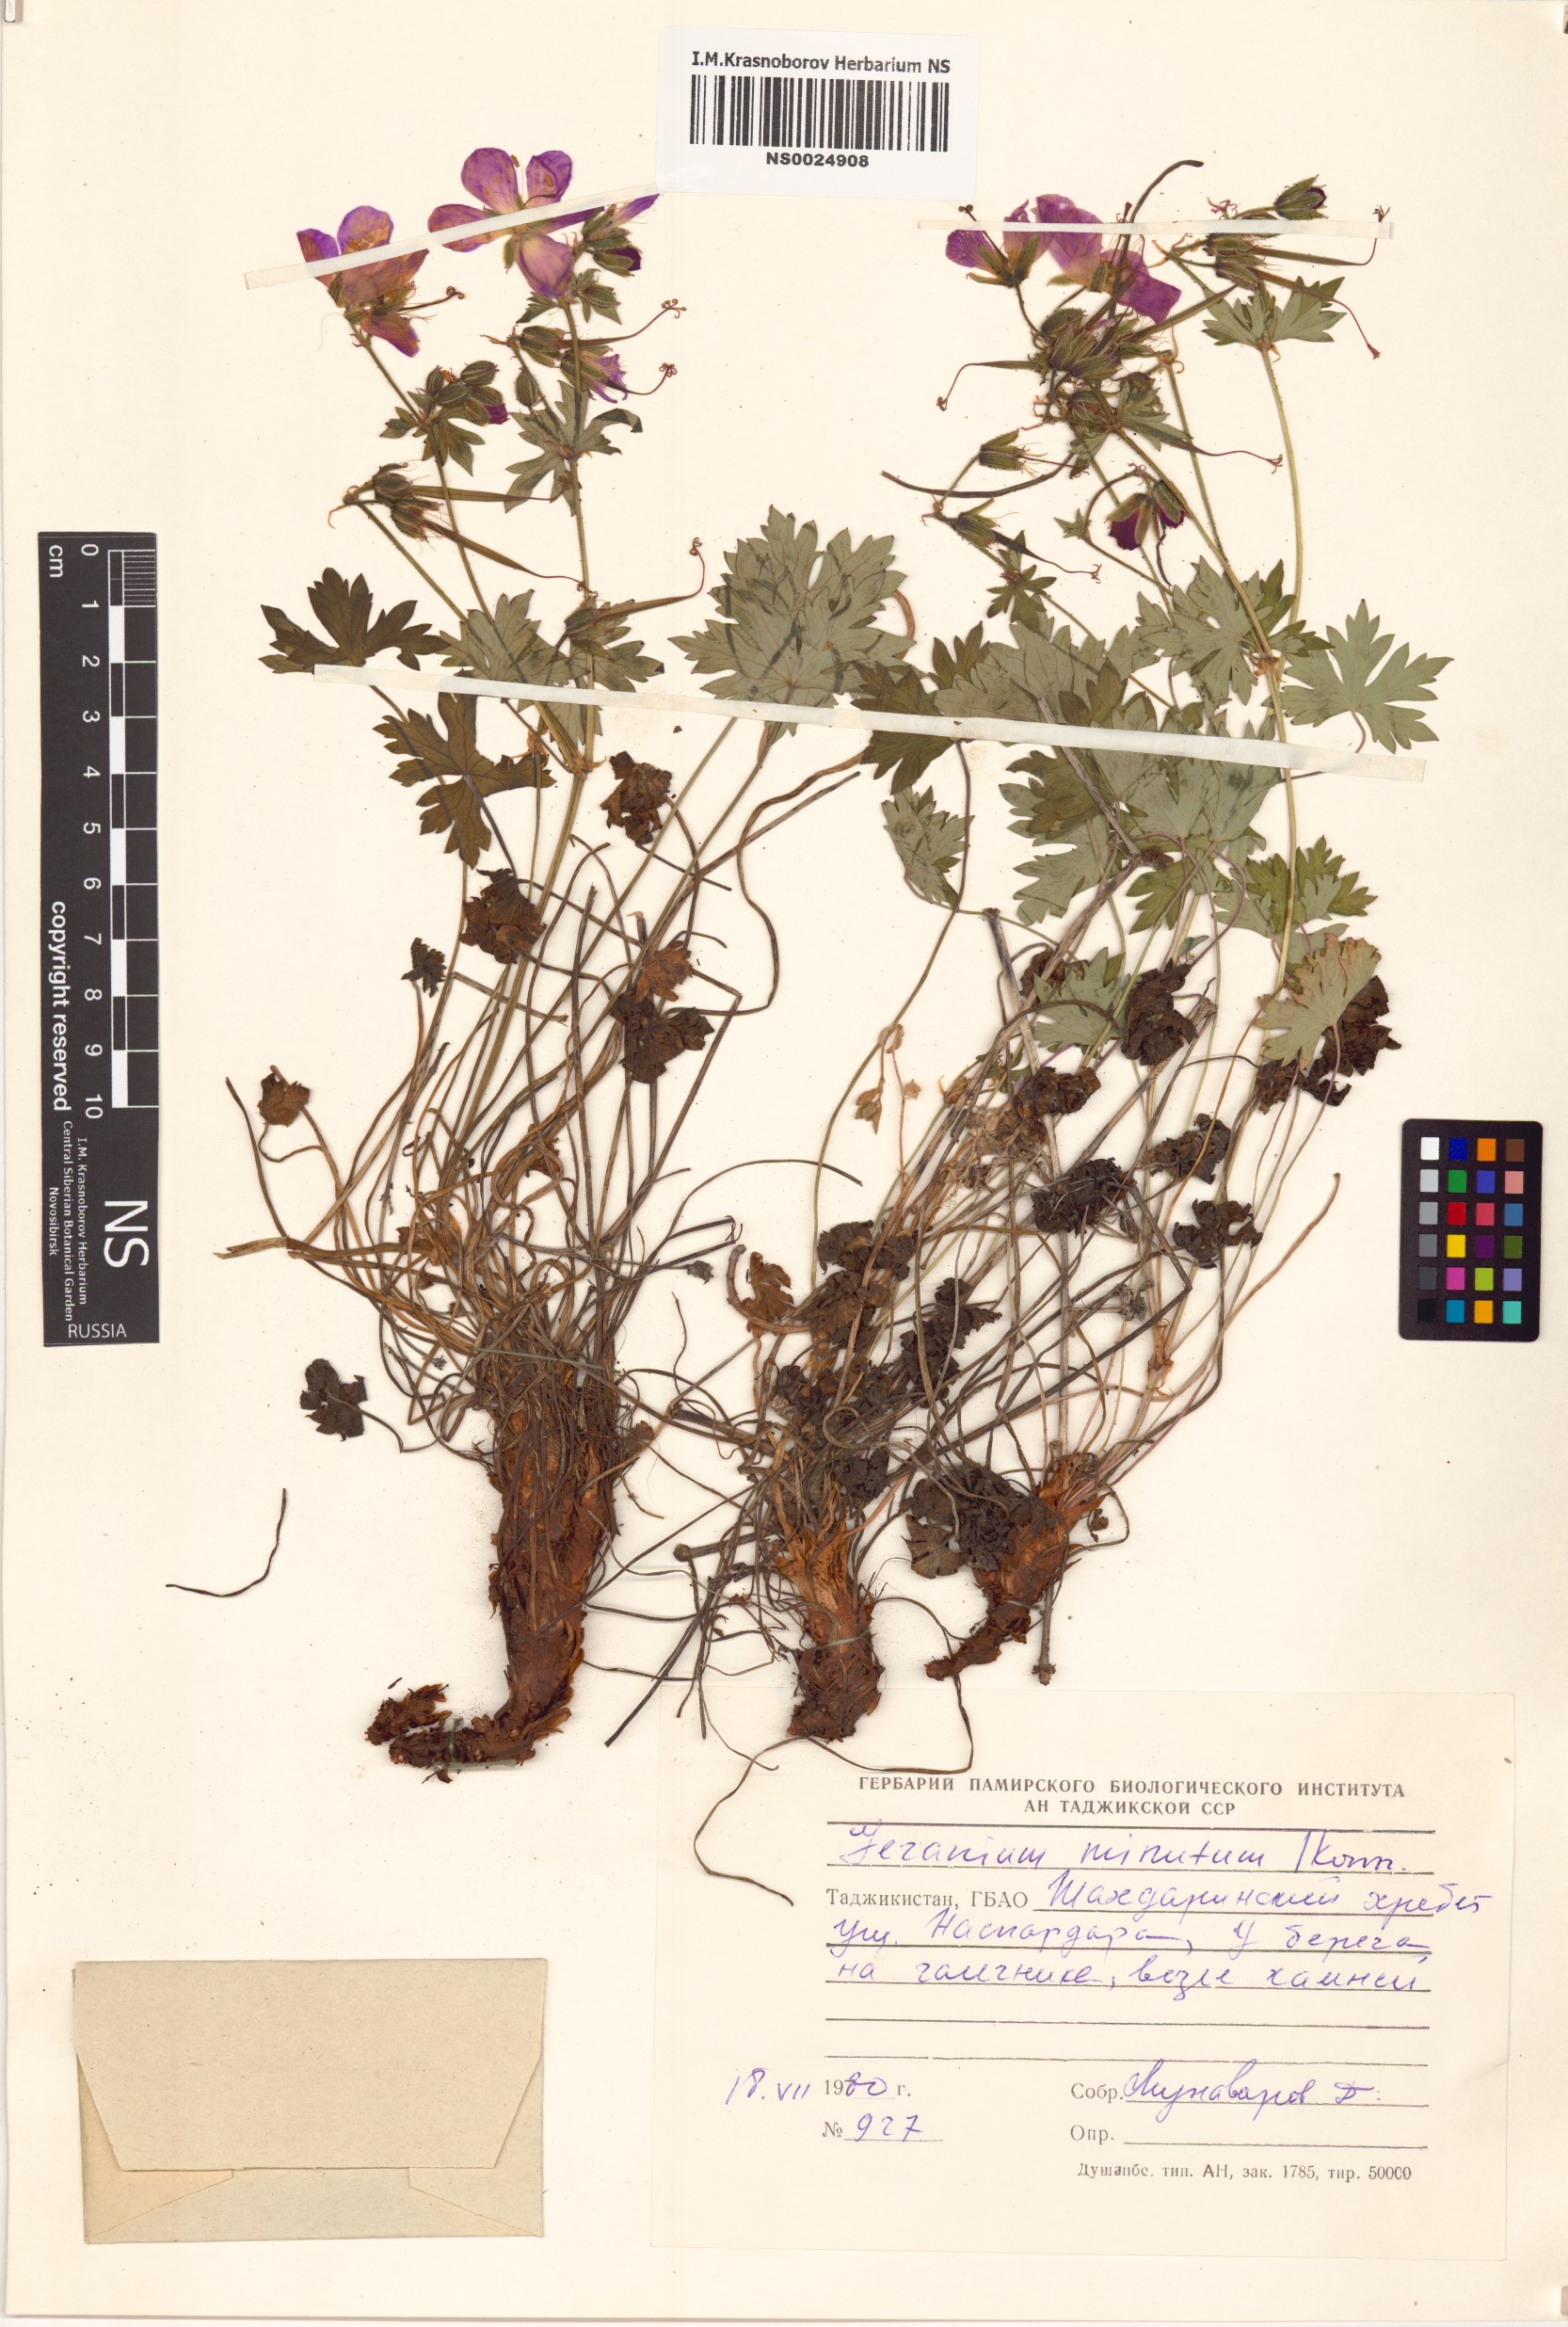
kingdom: Plantae
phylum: Tracheophyta
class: Magnoliopsida
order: Geraniales
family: Geraniaceae
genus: Geranium
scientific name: Geranium sophiae
